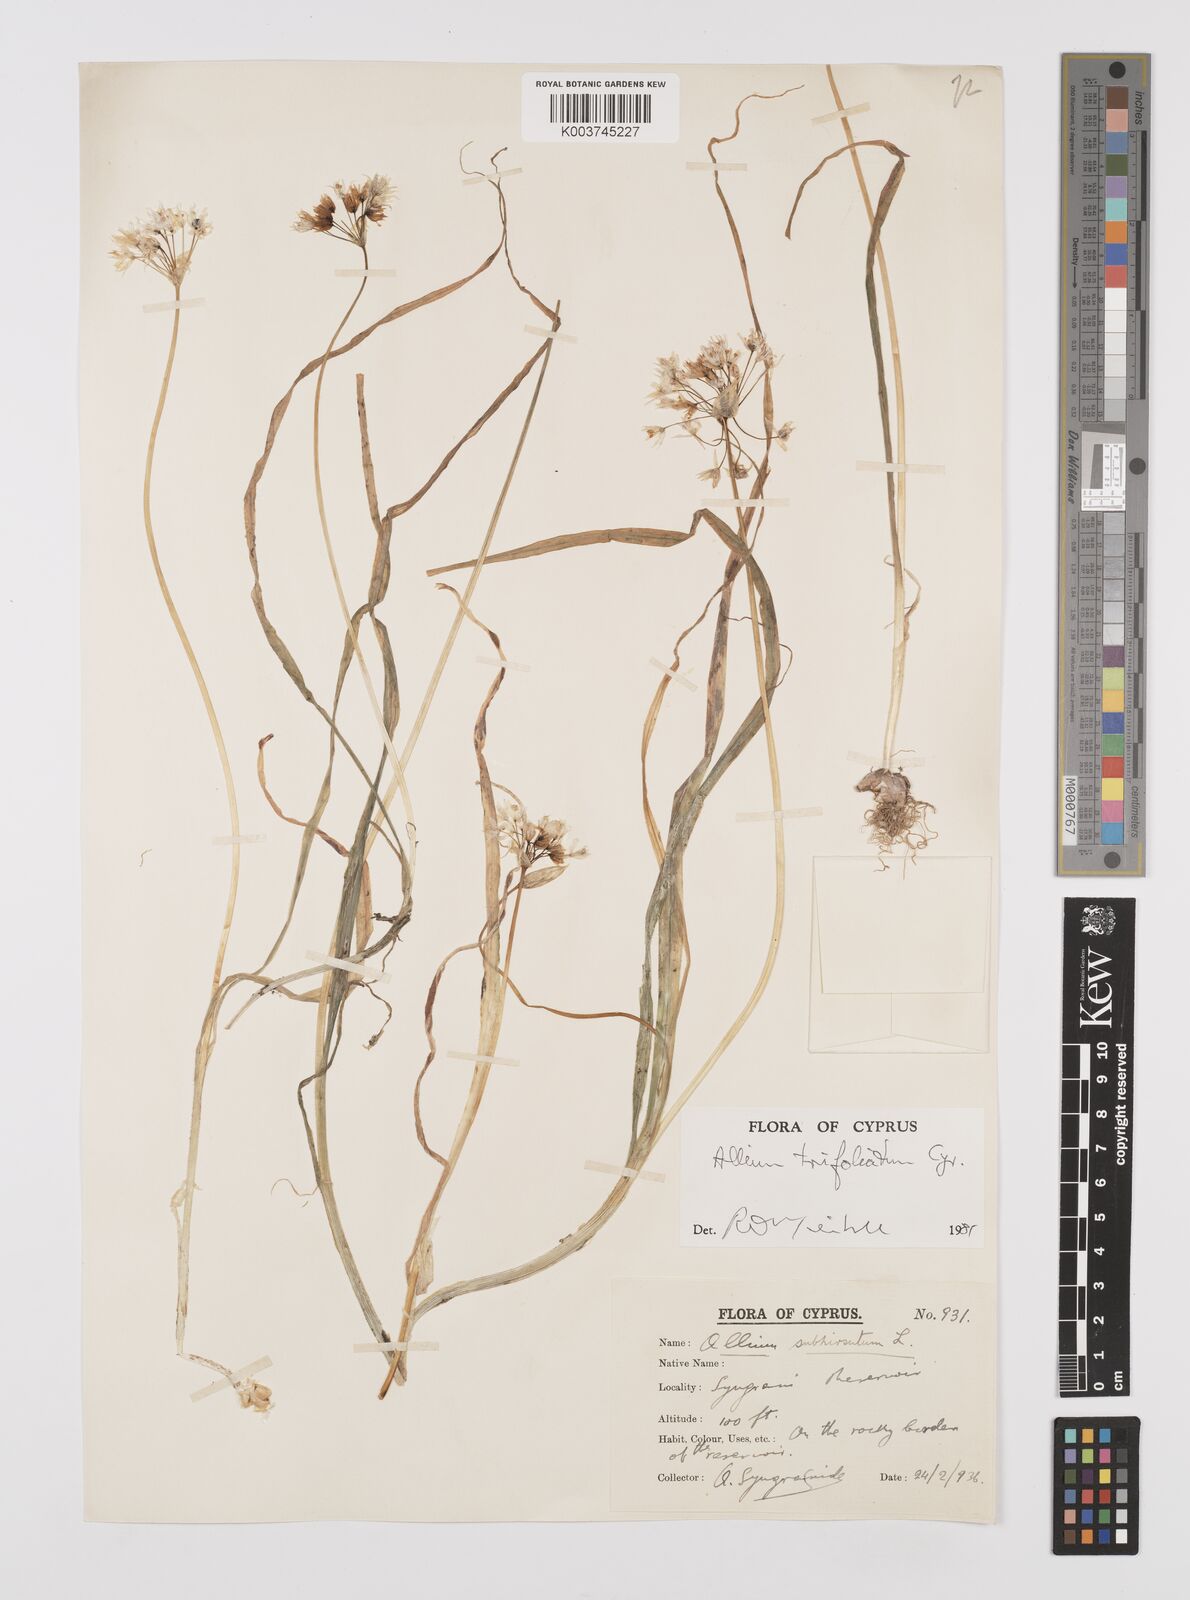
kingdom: Plantae
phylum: Tracheophyta
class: Liliopsida
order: Asparagales
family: Amaryllidaceae
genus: Allium
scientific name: Allium subhirsutum
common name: Hairy garlic
